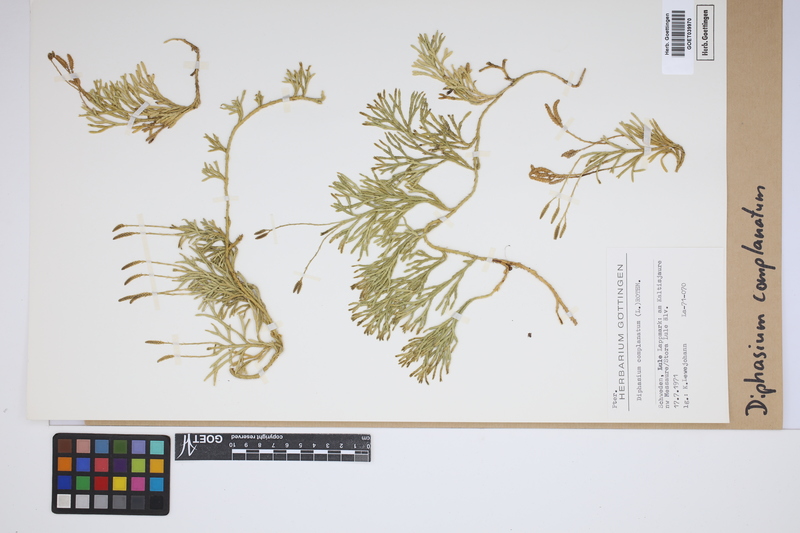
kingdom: Plantae
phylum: Tracheophyta
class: Lycopodiopsida
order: Lycopodiales
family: Lycopodiaceae
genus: Diphasiastrum
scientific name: Diphasiastrum complanatum
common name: Northern running-pine
